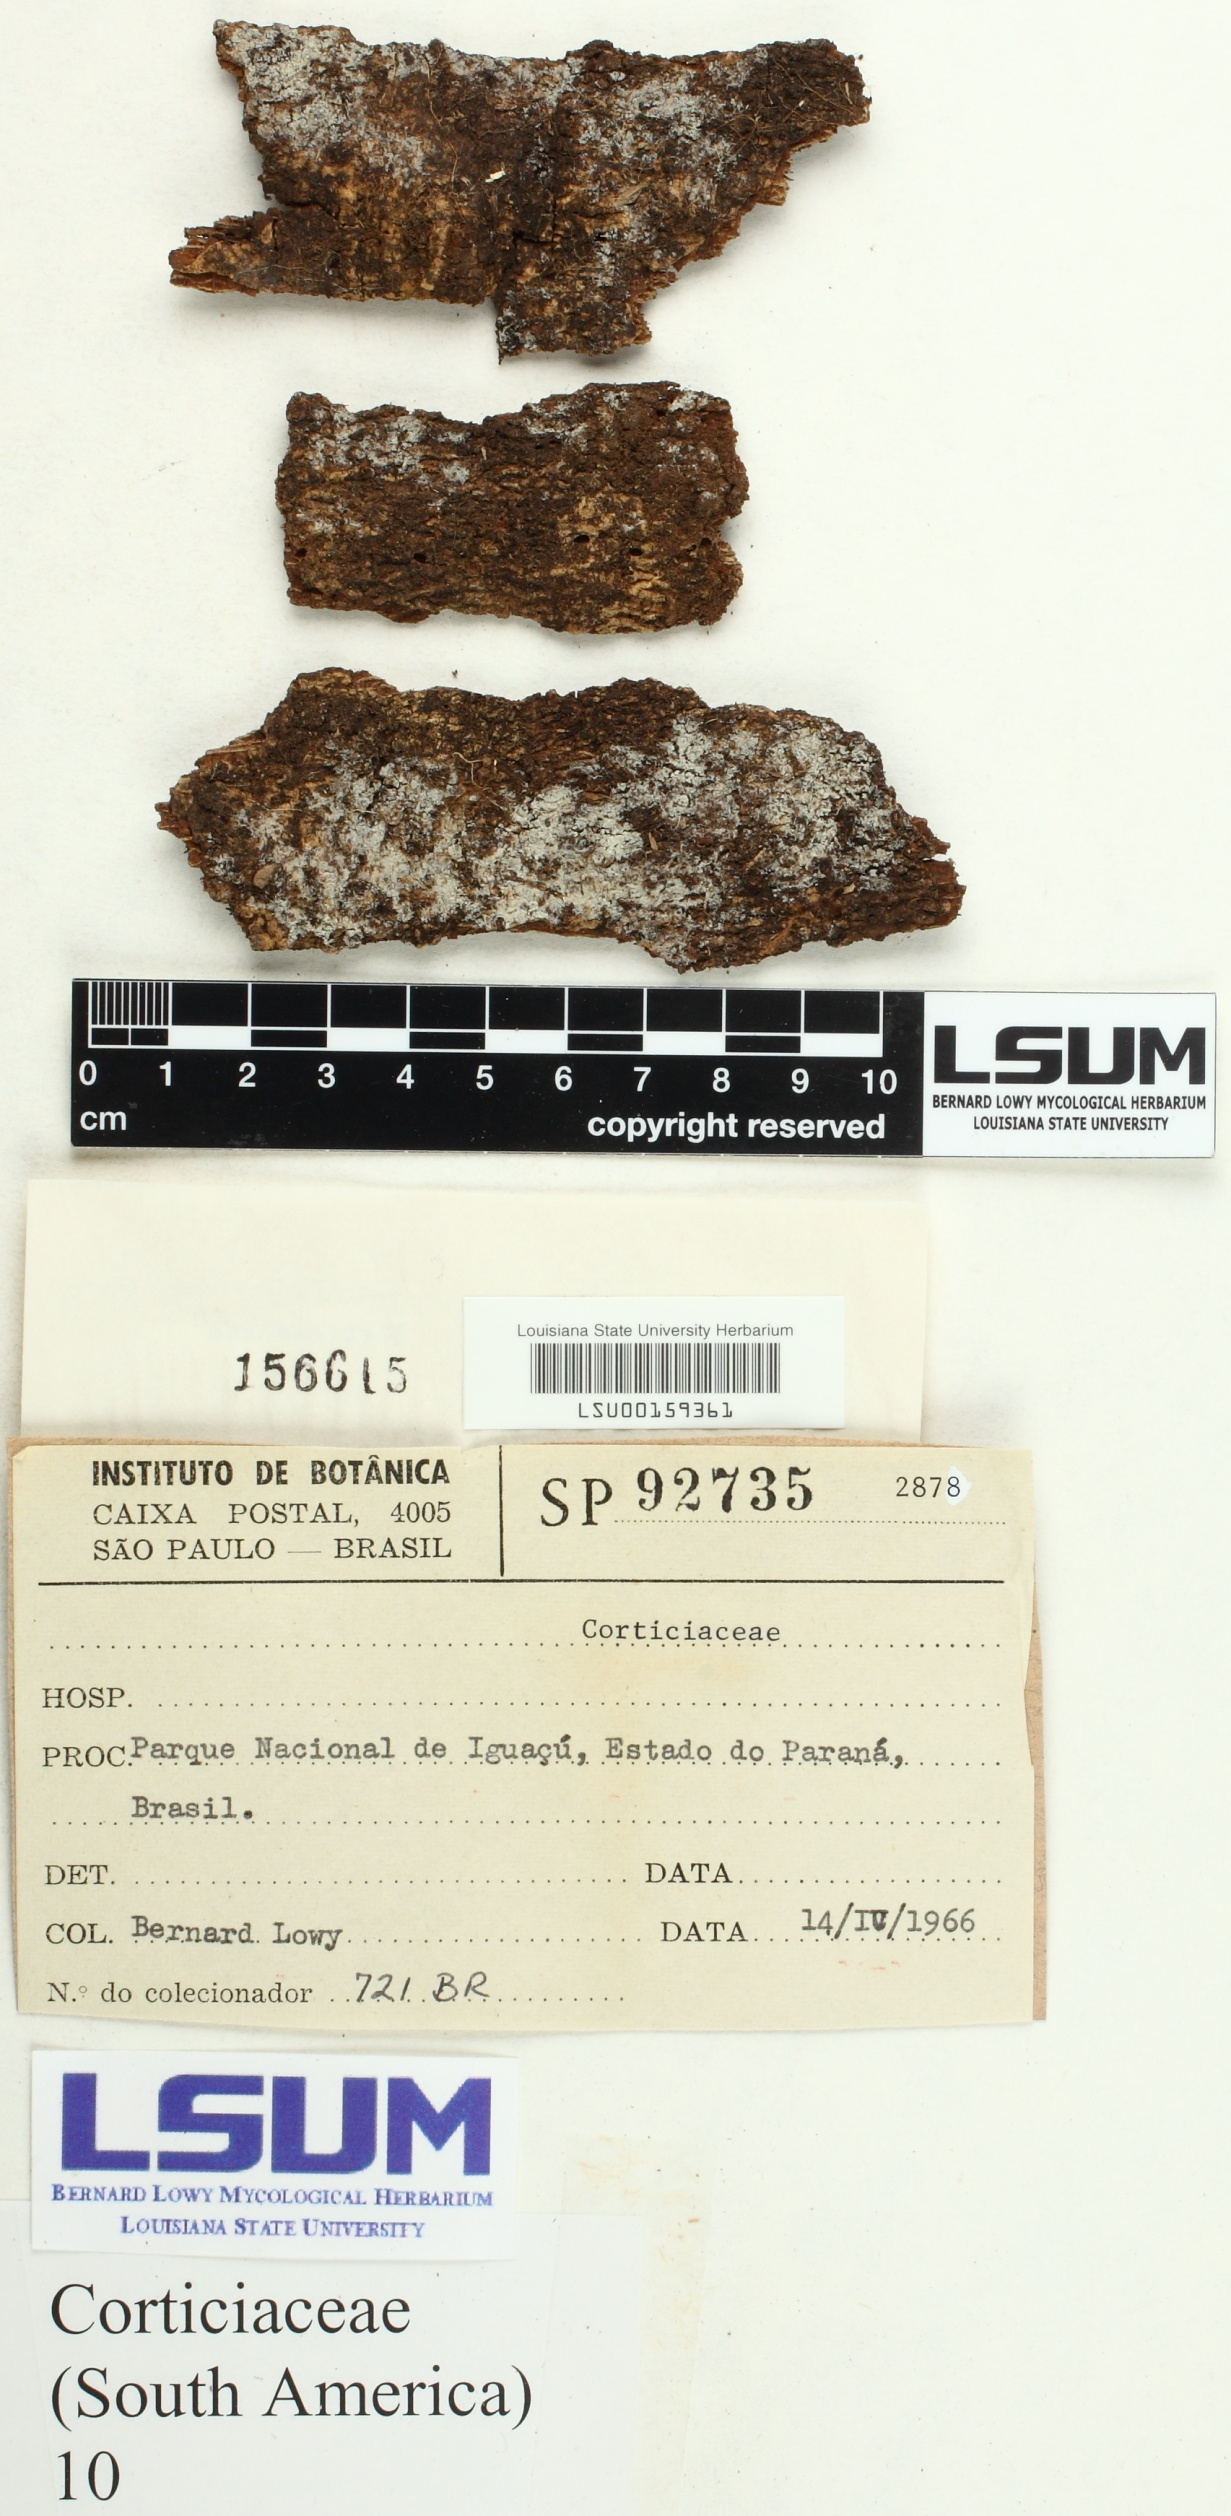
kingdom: Fungi
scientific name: Fungi
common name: Fungi
